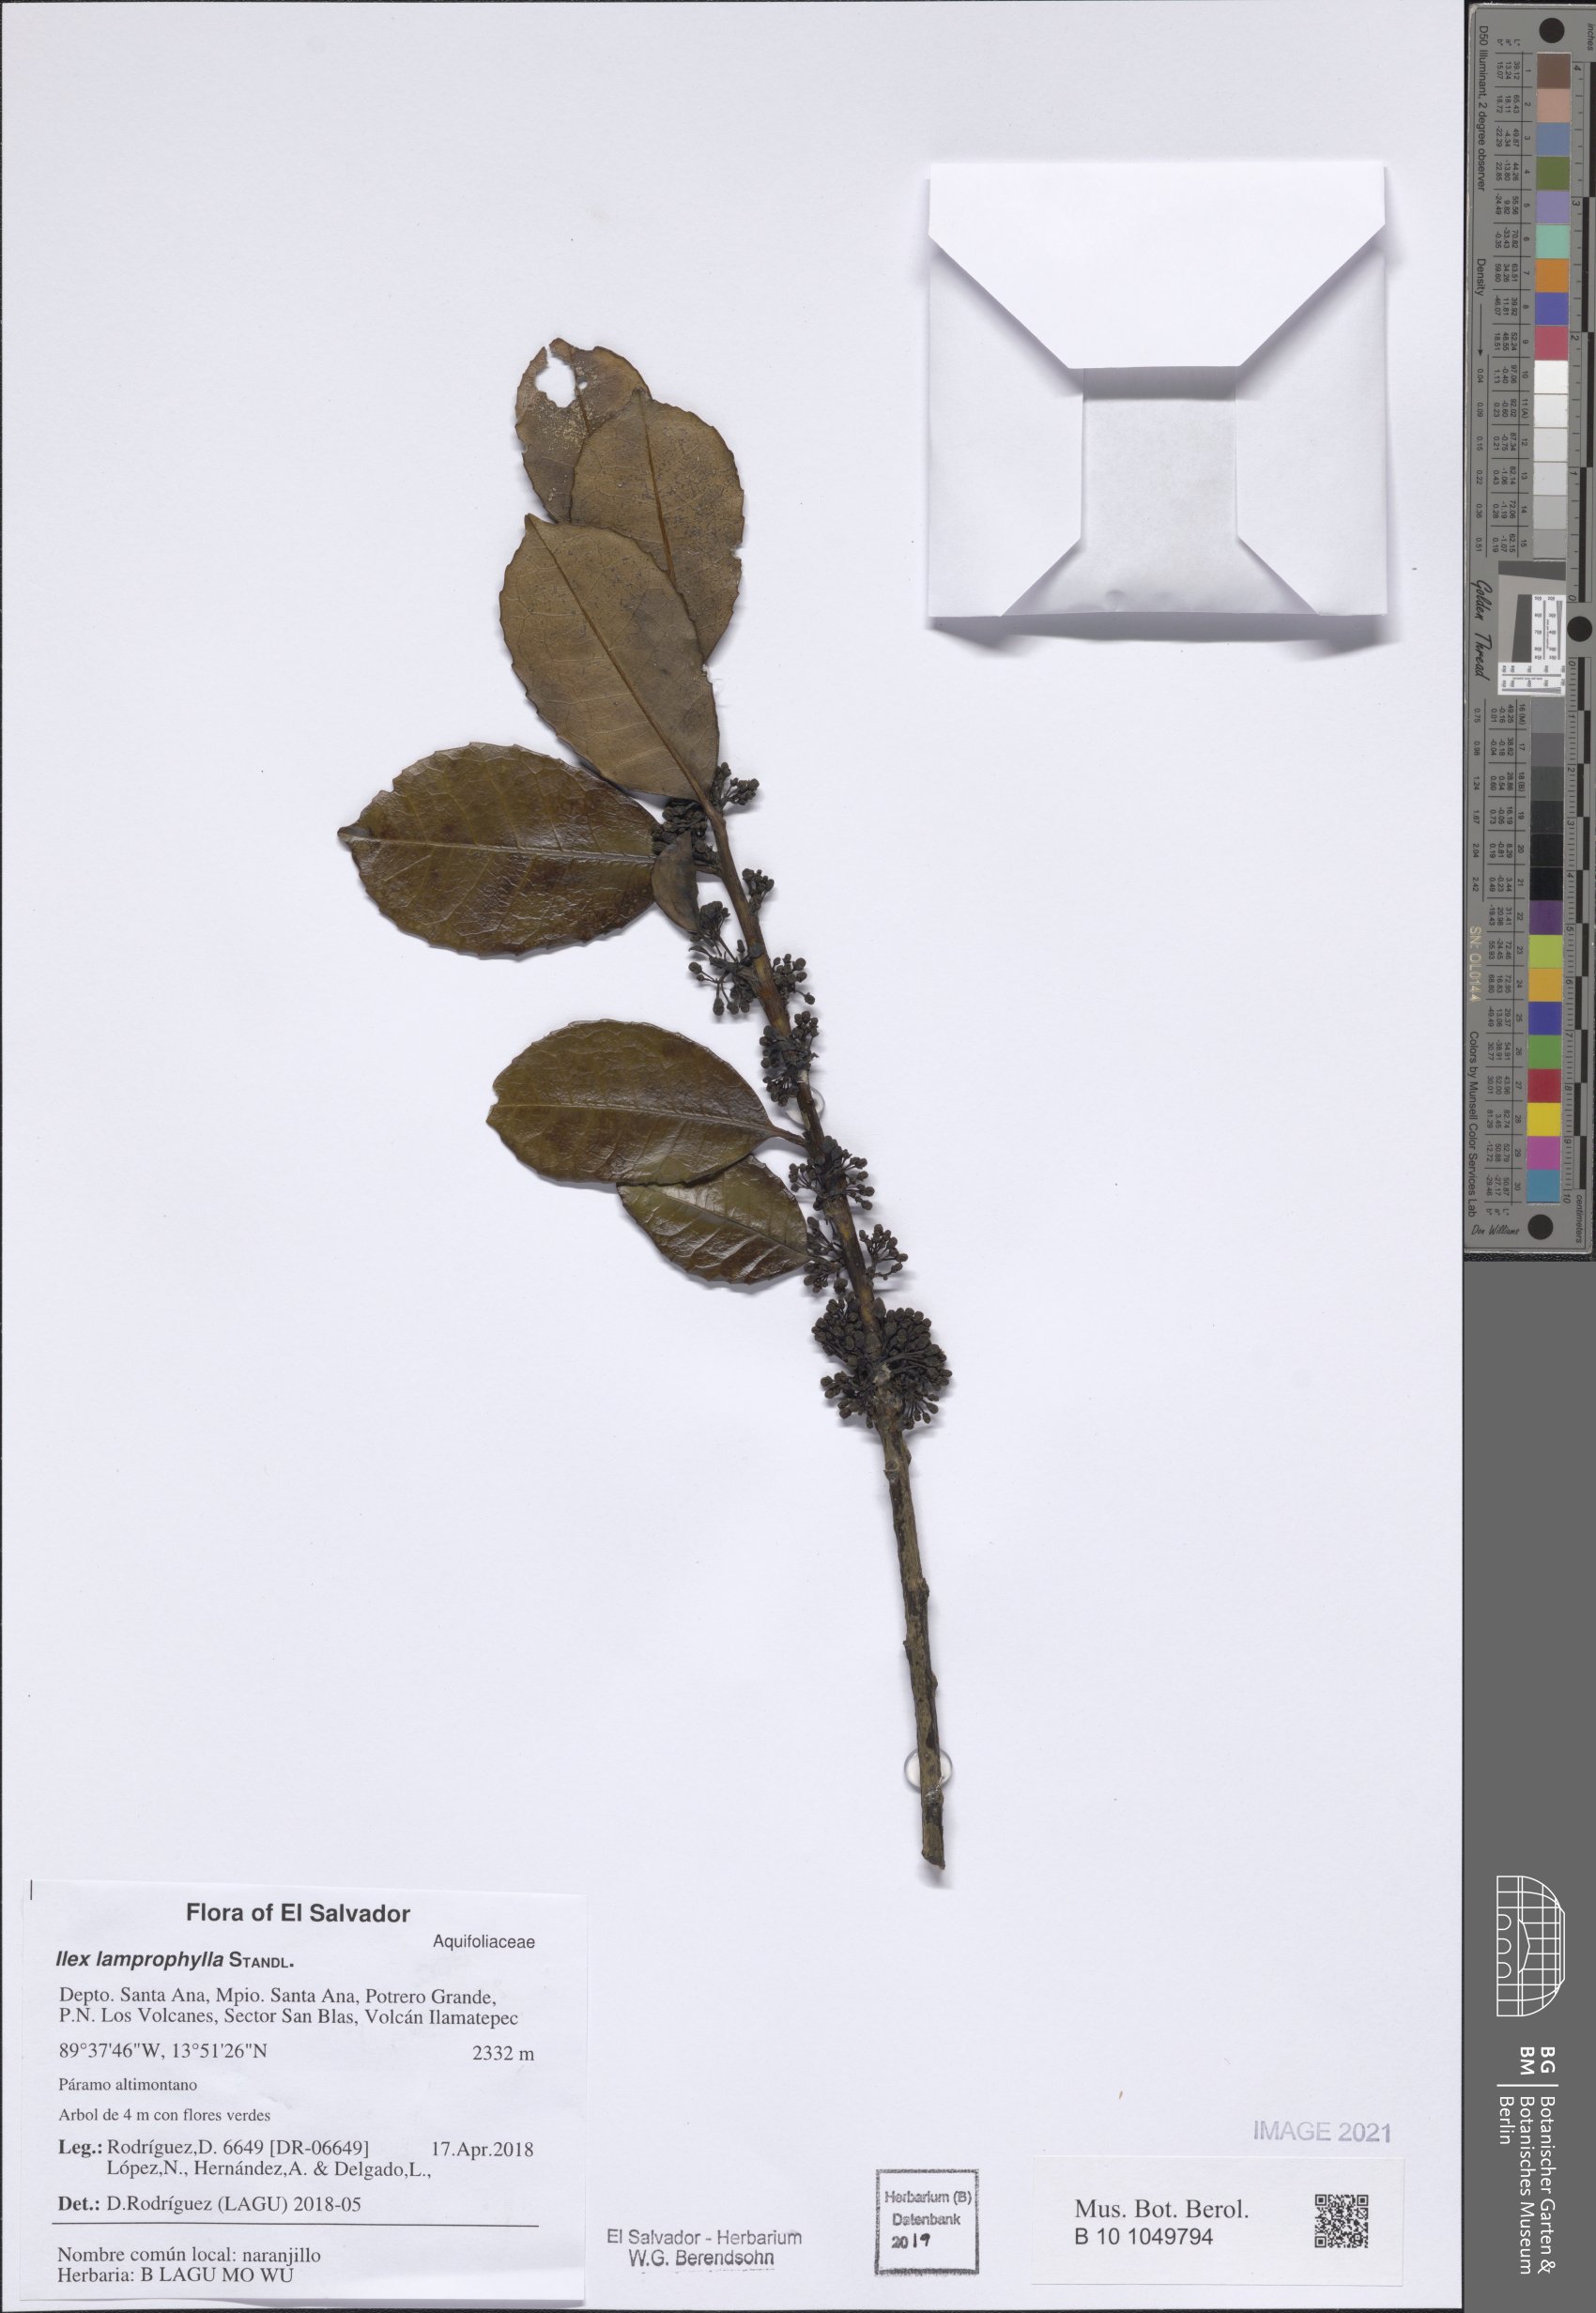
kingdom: Plantae
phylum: Tracheophyta
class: Magnoliopsida
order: Aquifoliales
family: Aquifoliaceae
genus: Ilex
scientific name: Ilex lamprophylla
